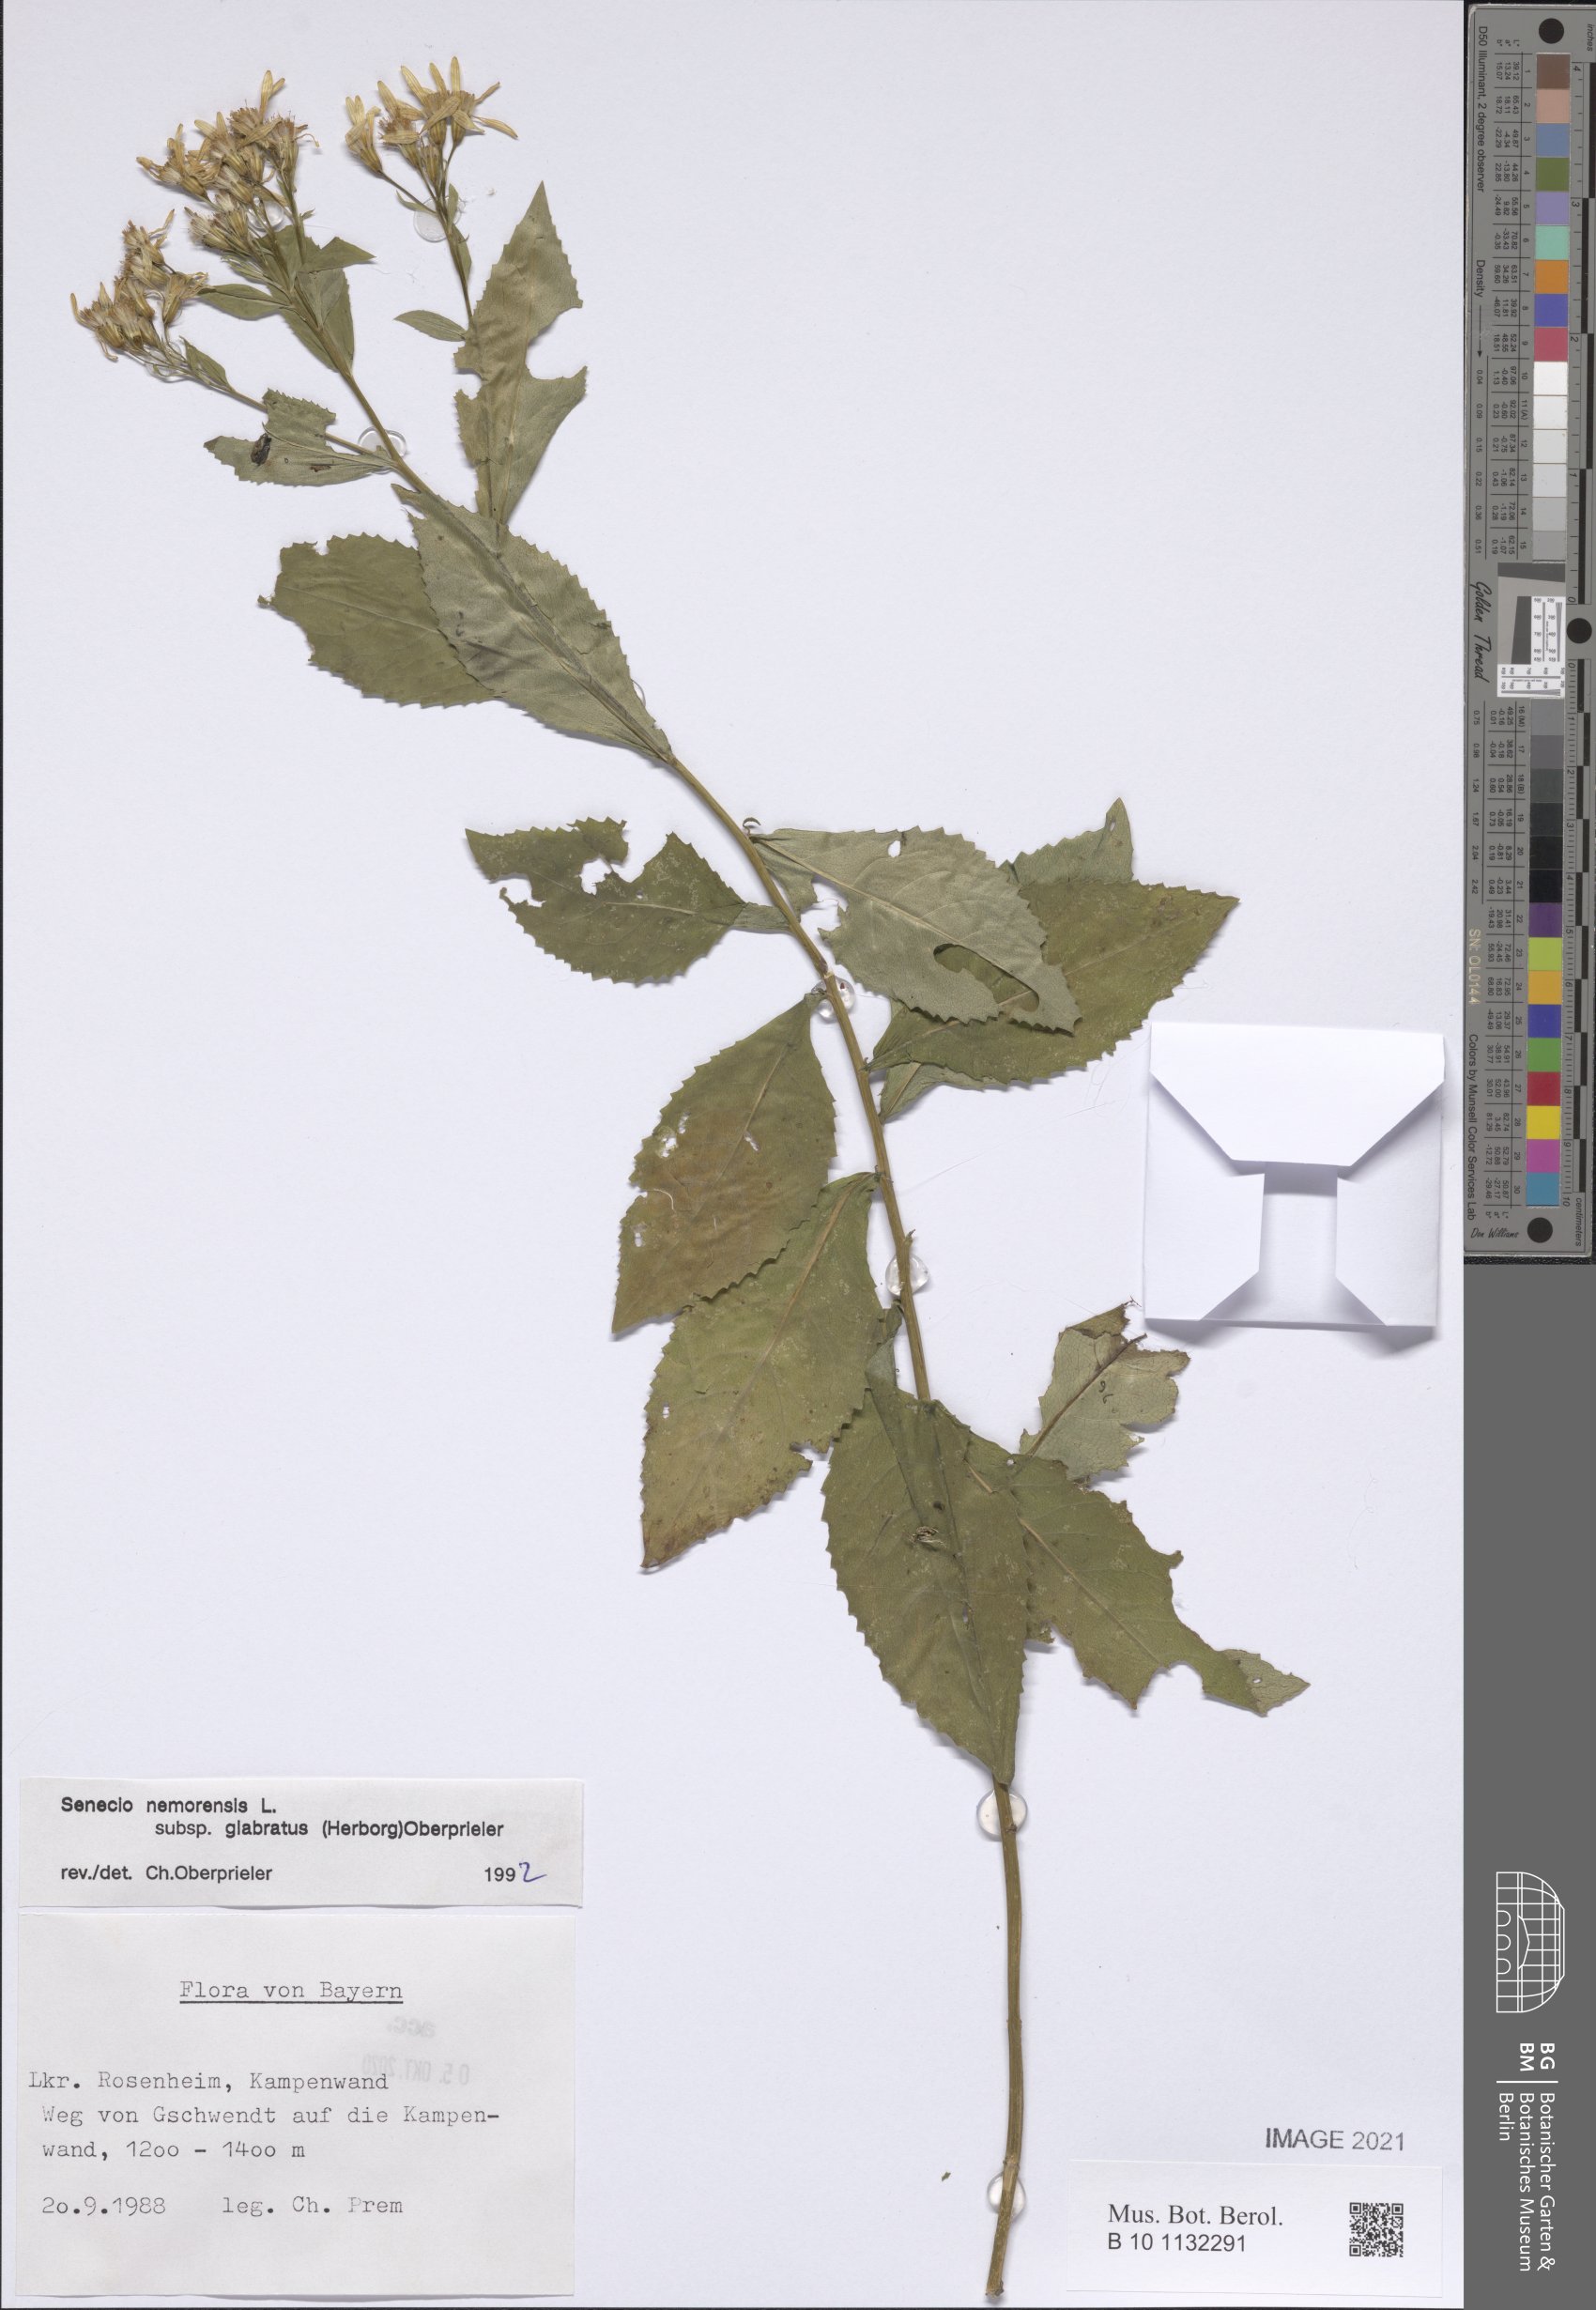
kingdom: Plantae
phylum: Tracheophyta
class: Magnoliopsida
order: Asterales
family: Asteraceae
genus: Senecio
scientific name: Senecio germanicus
